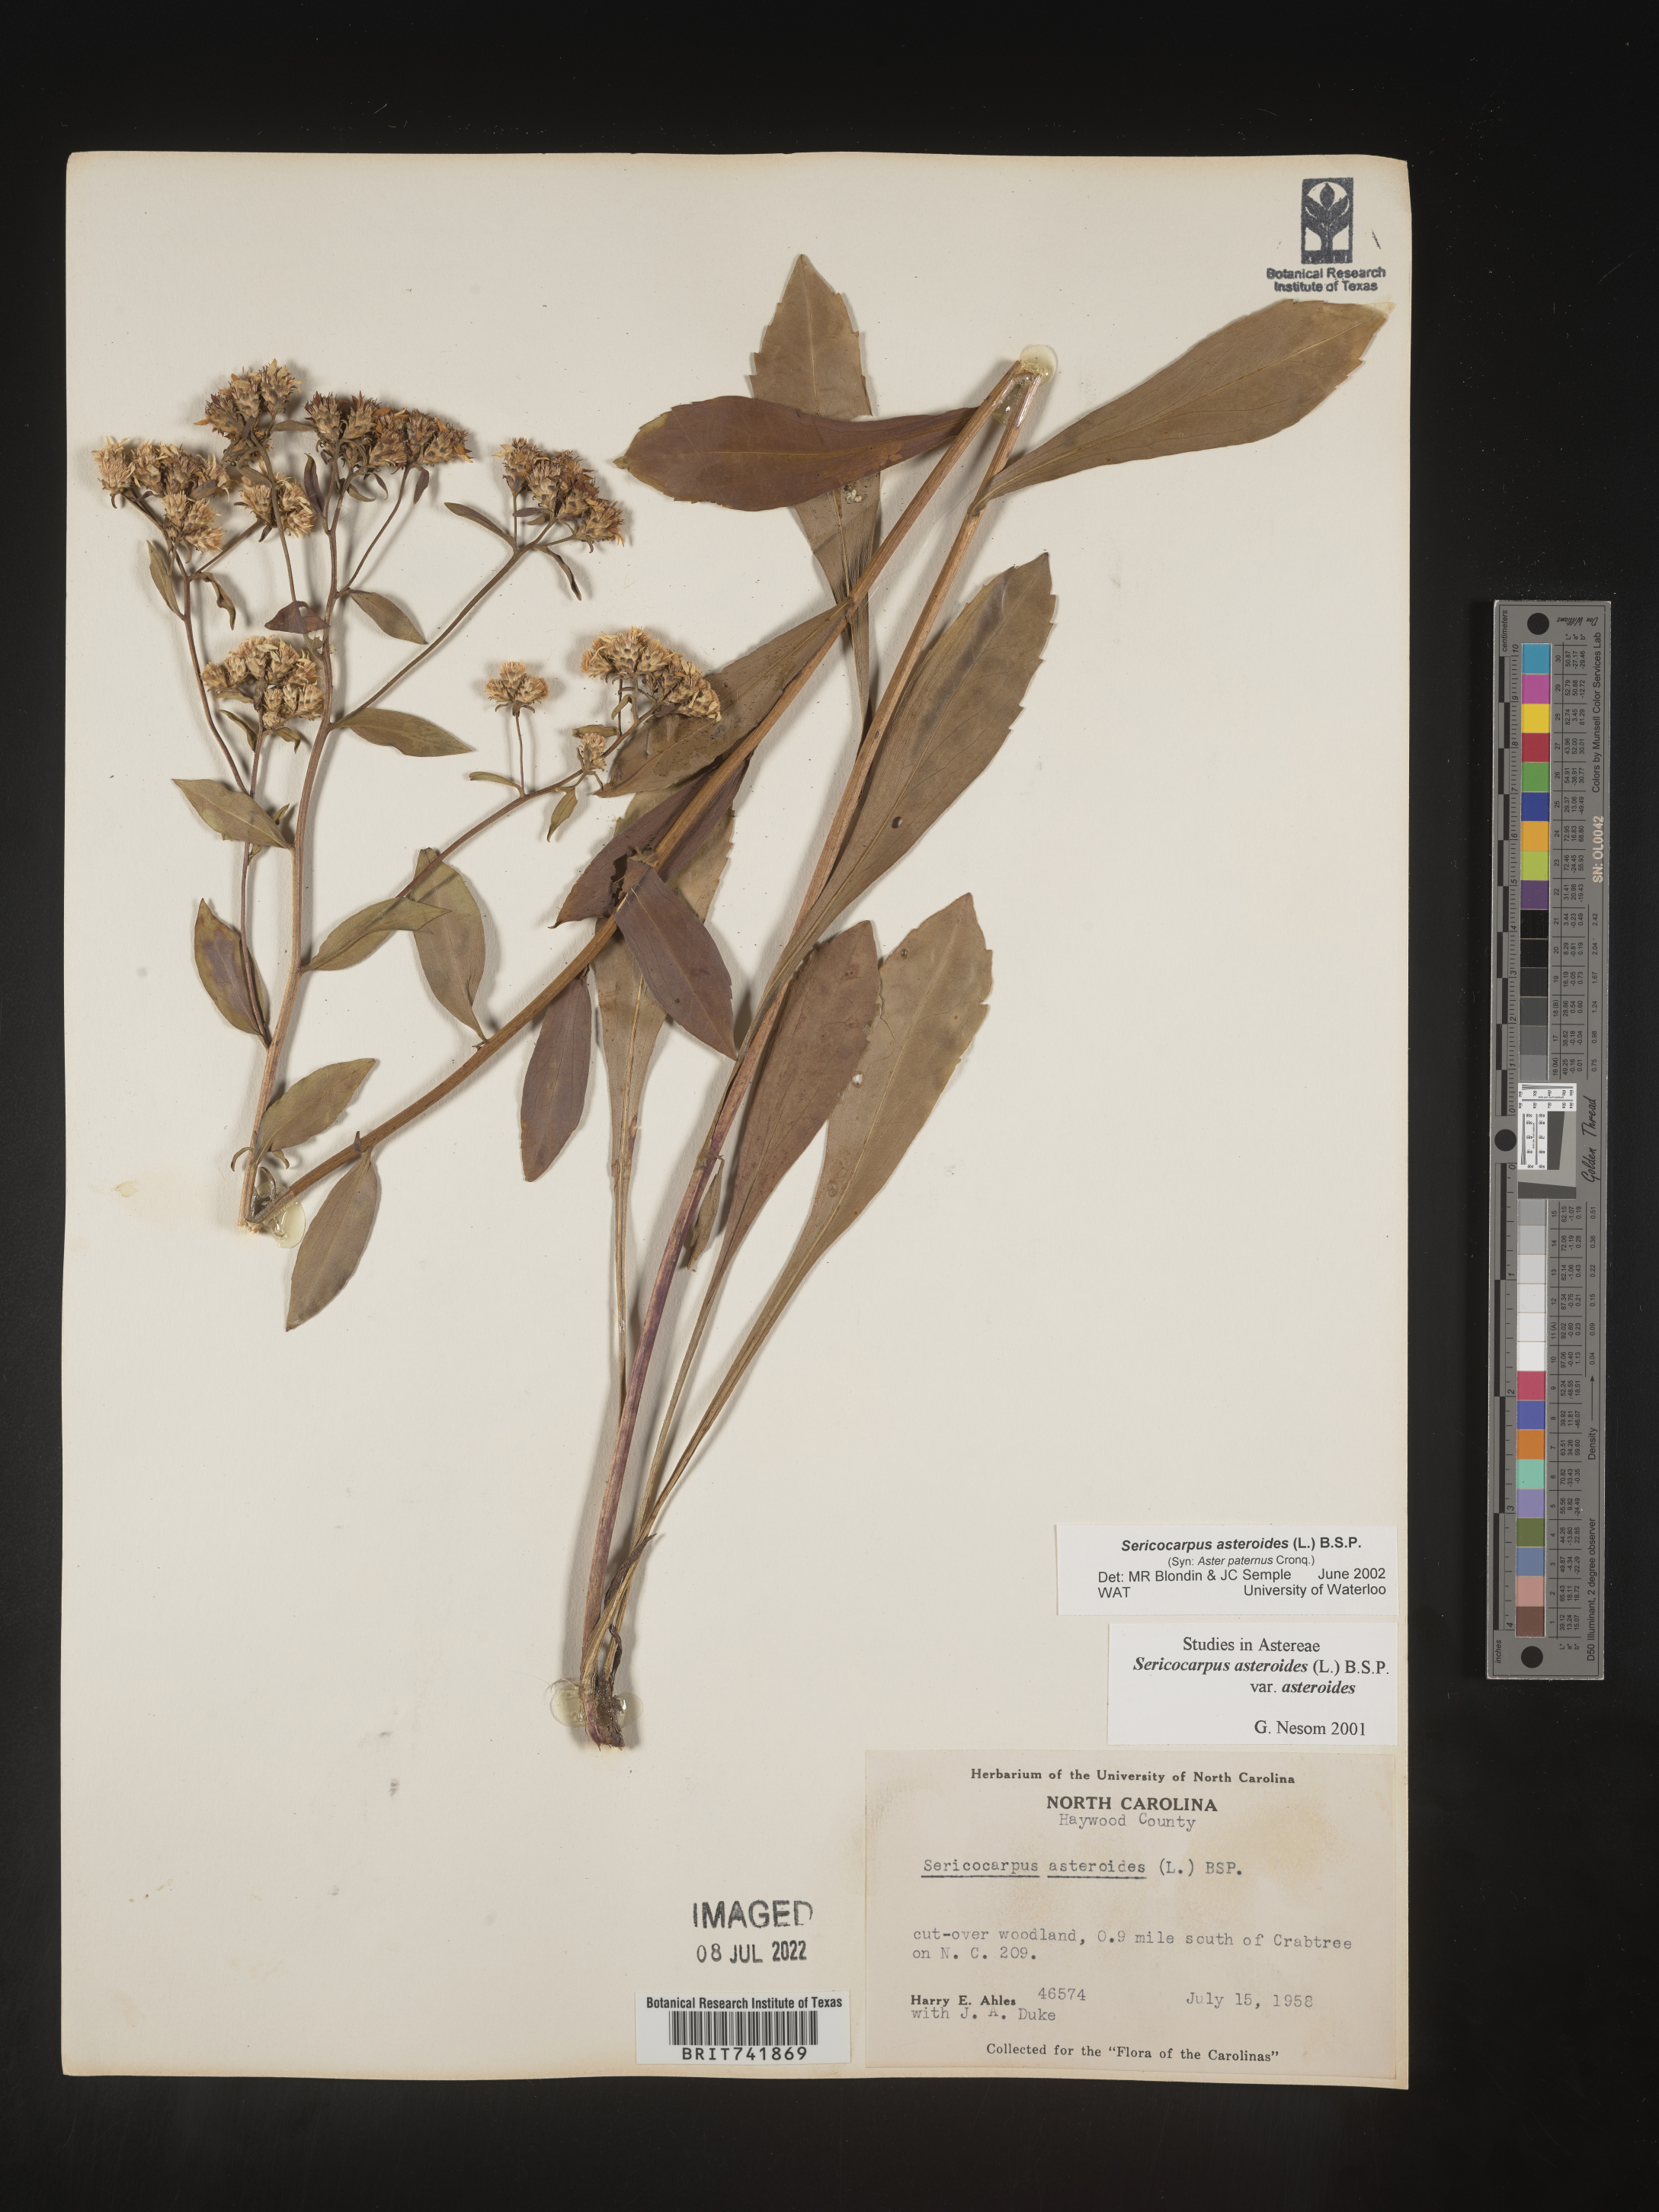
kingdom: Plantae
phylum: Tracheophyta
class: Magnoliopsida
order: Asterales
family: Asteraceae
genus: Sericocarpus
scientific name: Sericocarpus asteroides
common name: Toothed white-top aster
